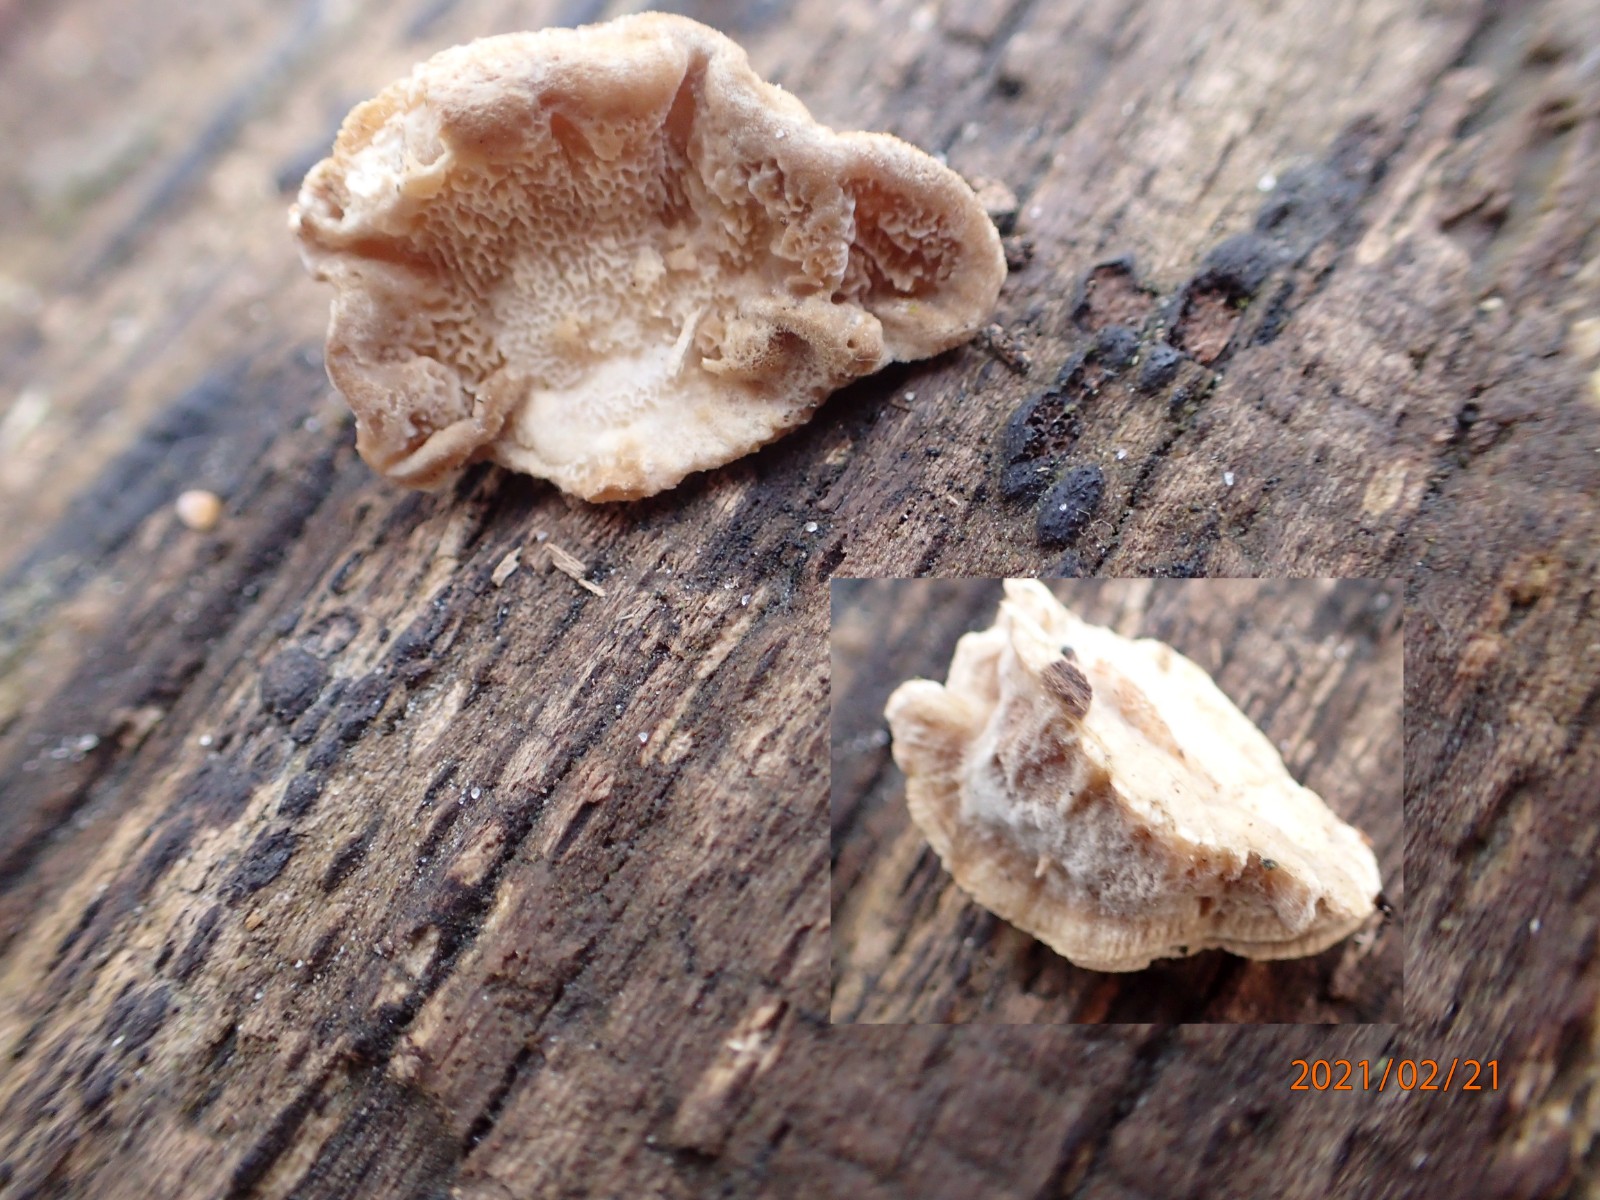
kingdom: Fungi
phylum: Basidiomycota
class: Agaricomycetes
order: Polyporales
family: Polyporaceae
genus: Podofomes
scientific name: Podofomes mollis
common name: blød begporesvamp
